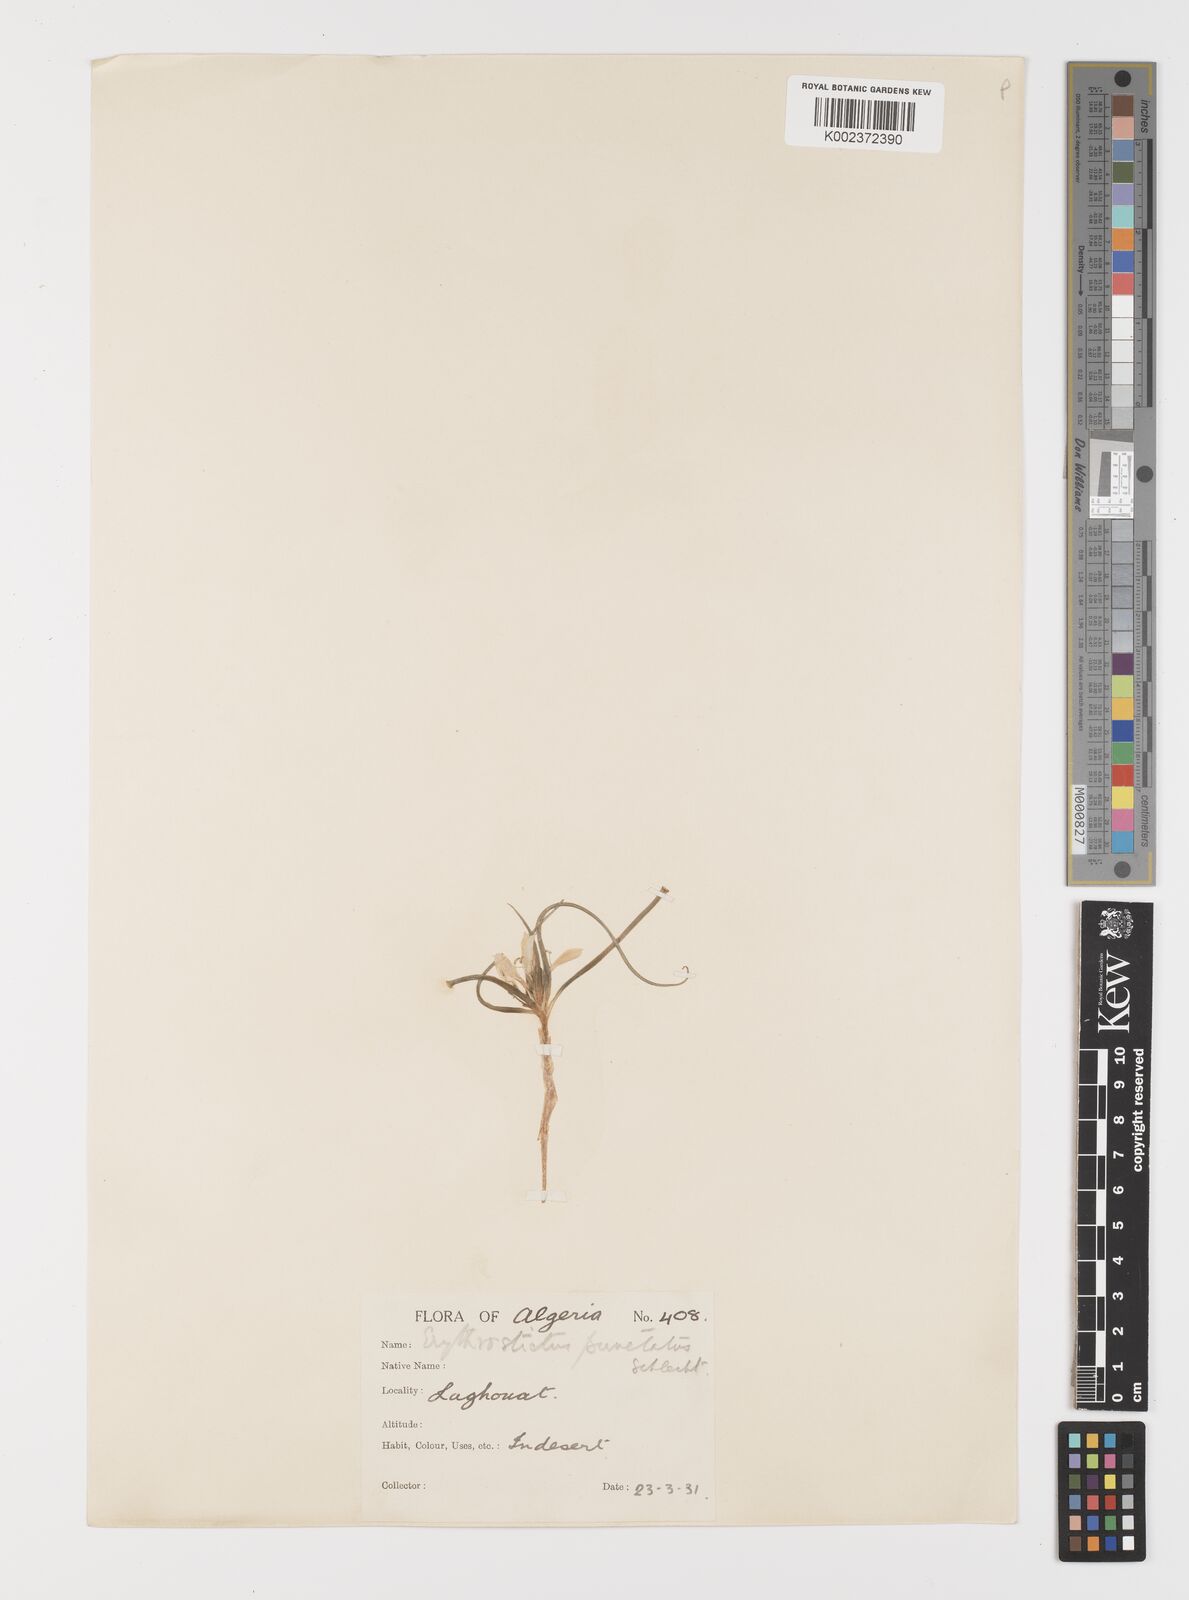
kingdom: Plantae
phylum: Tracheophyta
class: Liliopsida
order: Liliales
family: Colchicaceae
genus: Colchicum
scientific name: Colchicum gramineum
